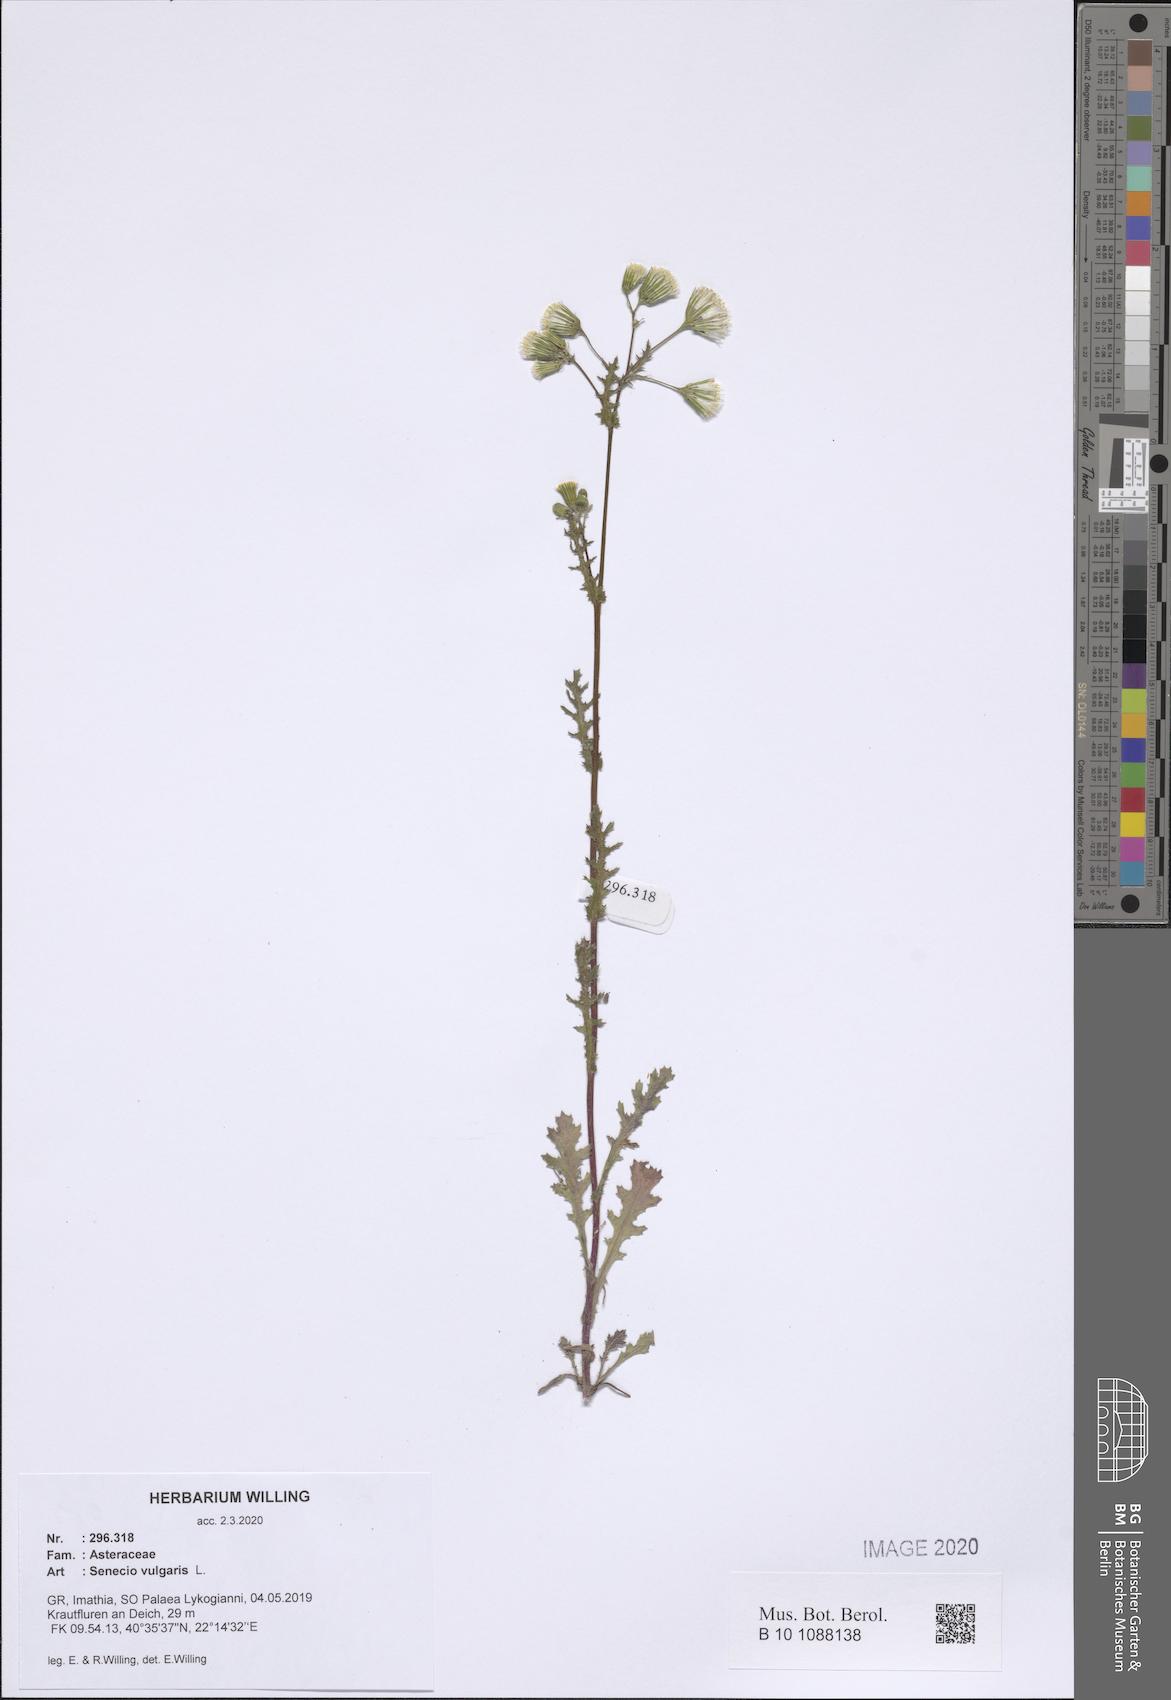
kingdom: Plantae
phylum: Tracheophyta
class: Magnoliopsida
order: Asterales
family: Asteraceae
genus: Senecio
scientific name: Senecio vulgaris
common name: Old-man-in-the-spring
